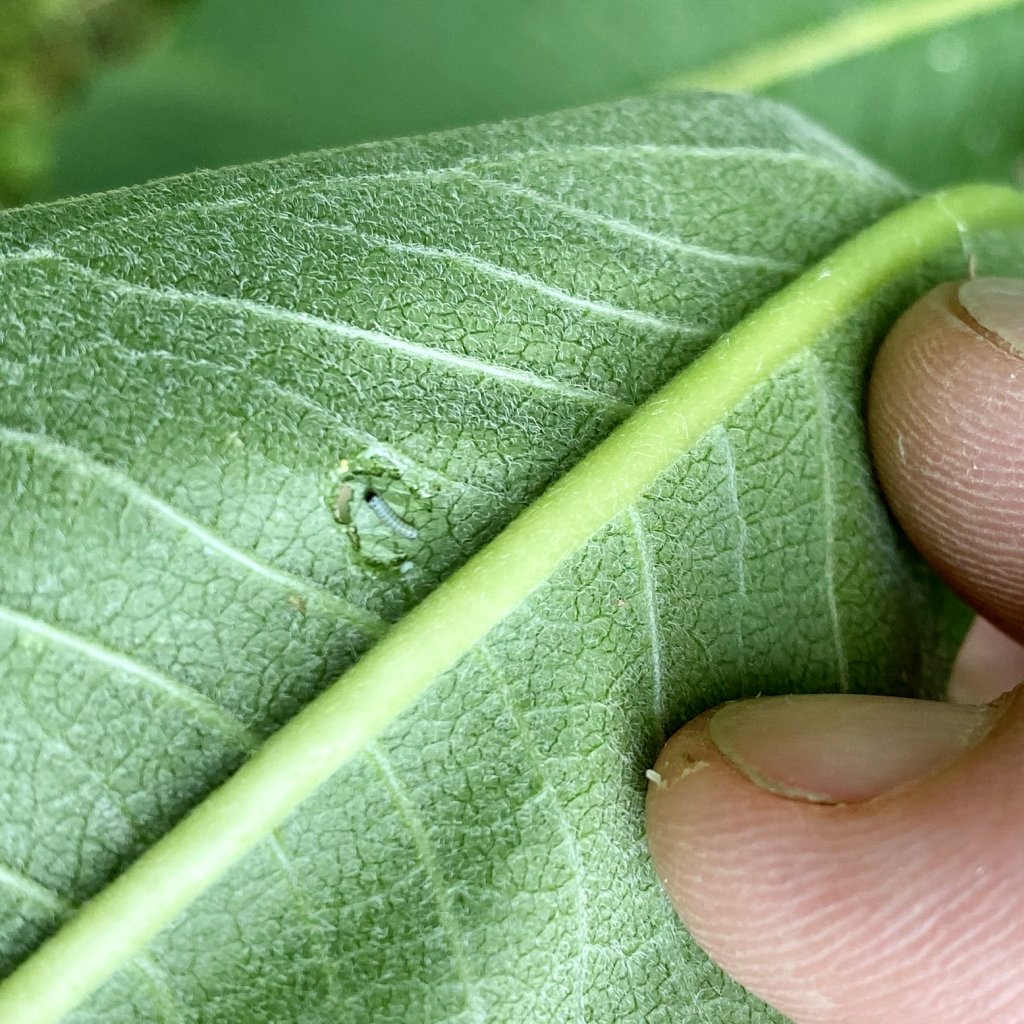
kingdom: Animalia
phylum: Arthropoda
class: Insecta
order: Lepidoptera
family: Nymphalidae
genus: Danaus
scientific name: Danaus plexippus
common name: Monarch
